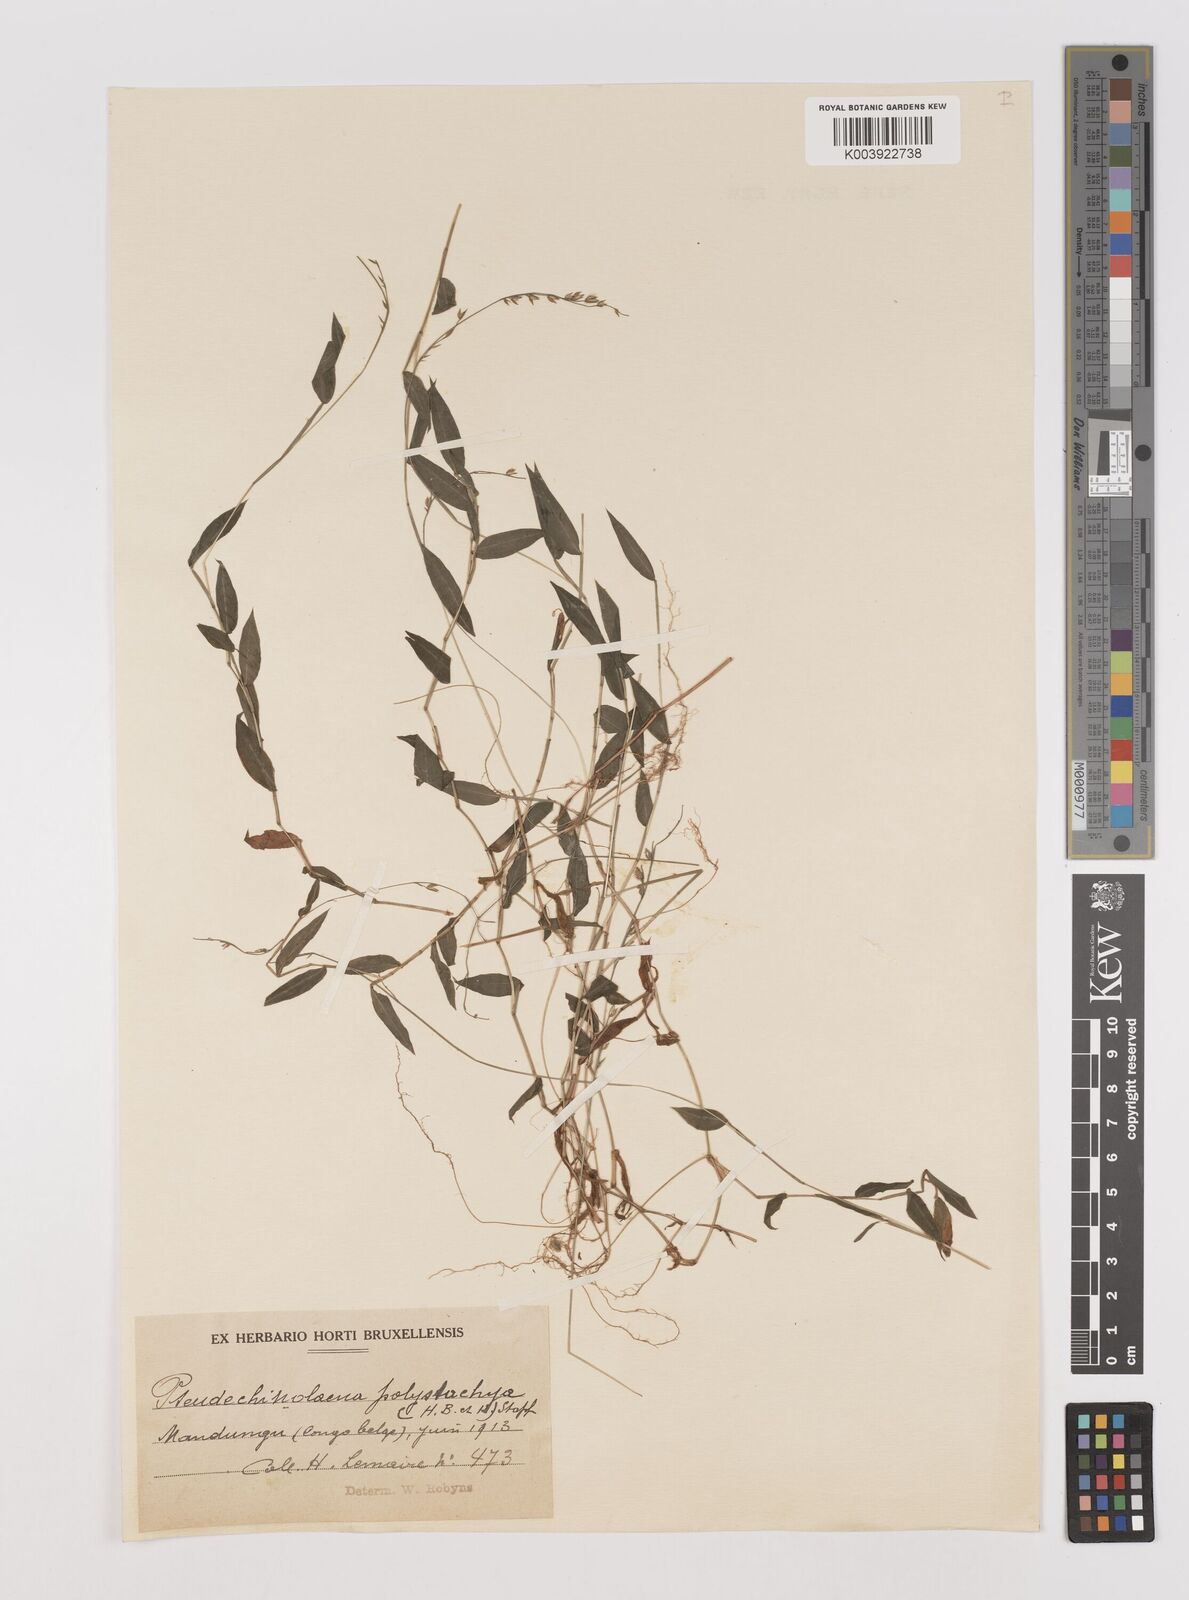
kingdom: Plantae
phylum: Tracheophyta
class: Liliopsida
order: Poales
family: Poaceae
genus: Pseudechinolaena
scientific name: Pseudechinolaena polystachya
